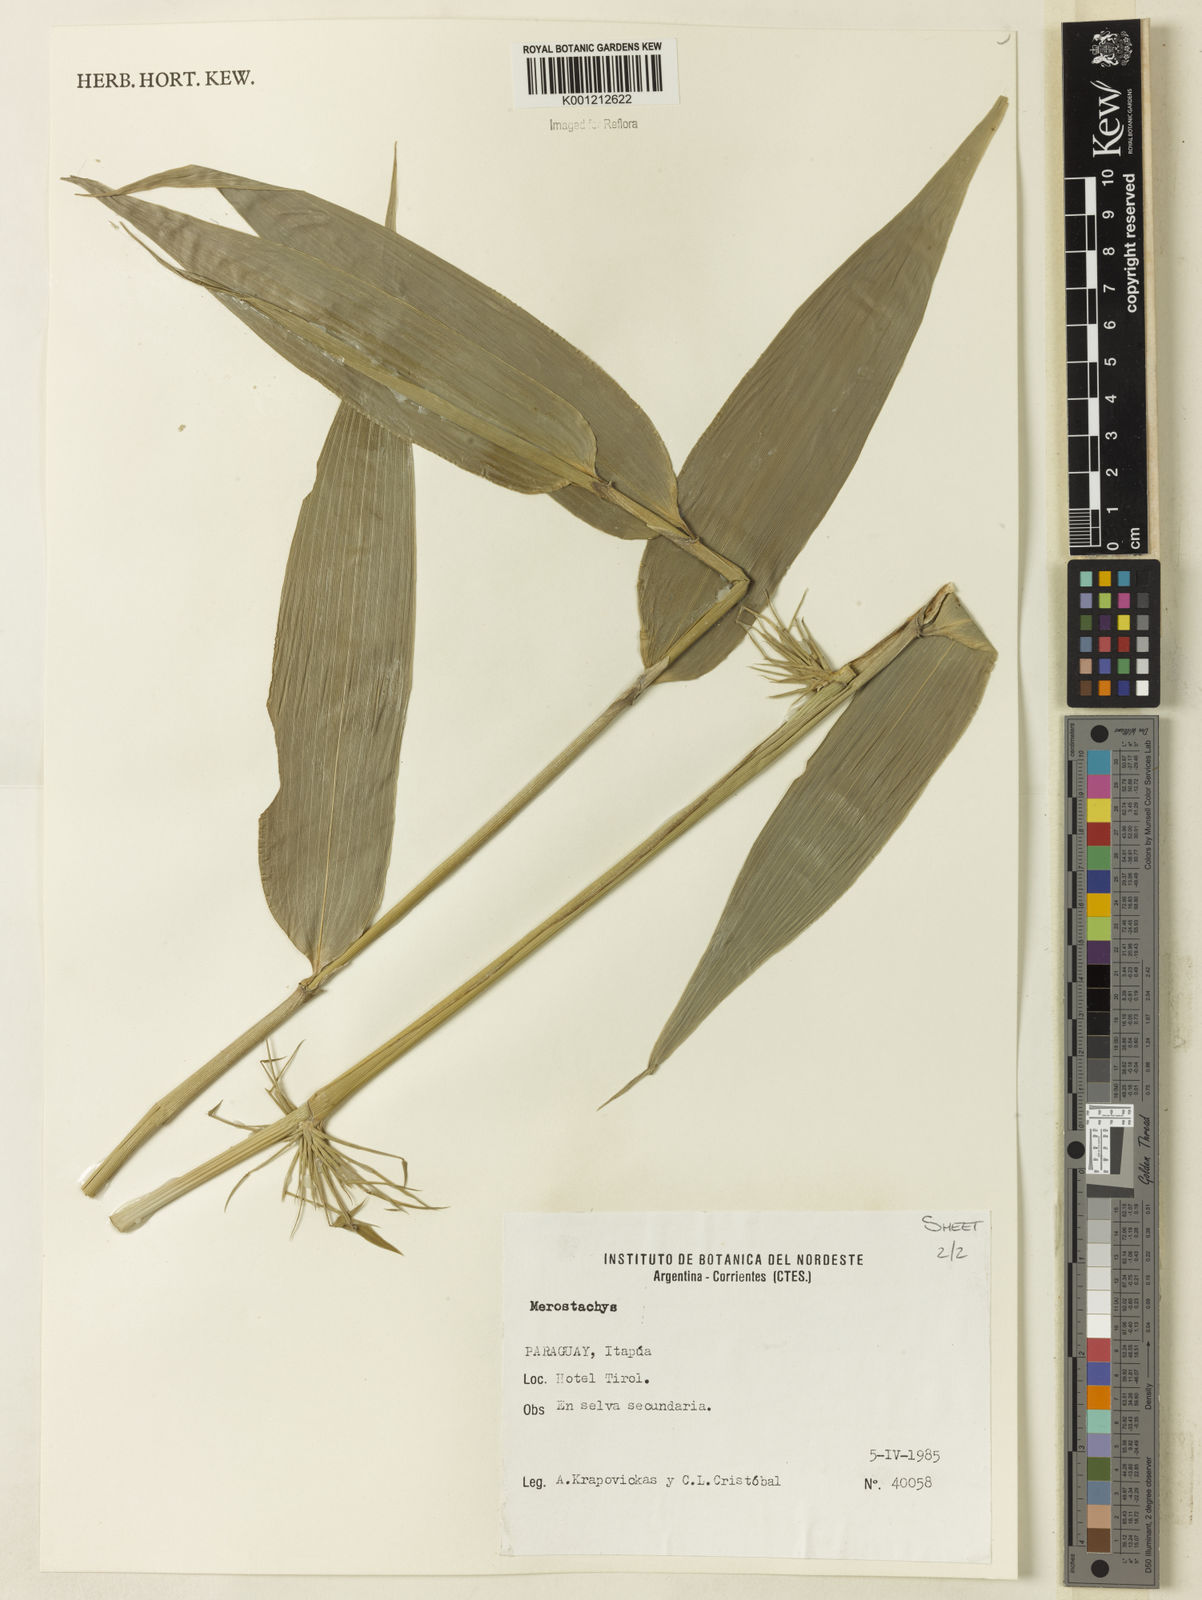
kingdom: Plantae
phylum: Tracheophyta
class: Liliopsida
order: Poales
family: Poaceae
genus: Merostachys
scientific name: Merostachys
